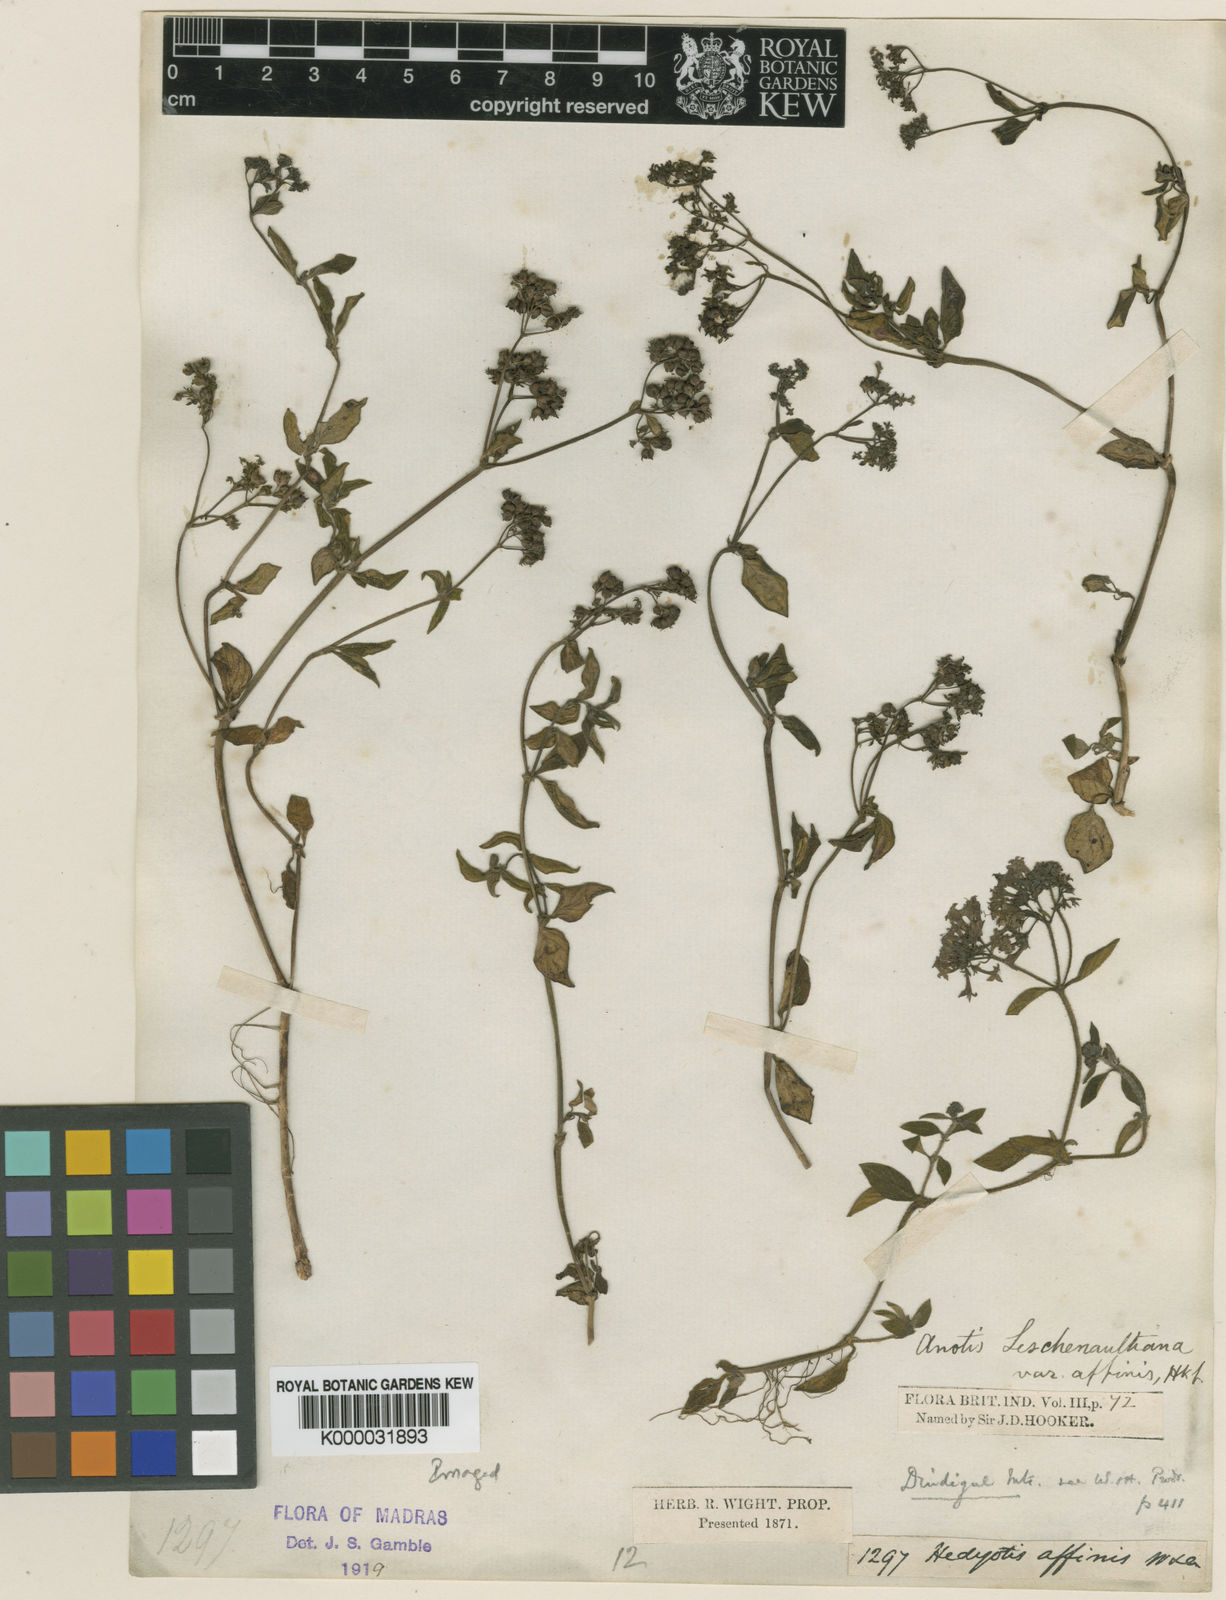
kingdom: Plantae
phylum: Tracheophyta
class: Magnoliopsida
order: Gentianales
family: Rubiaceae
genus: Neanotis
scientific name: Neanotis indica
